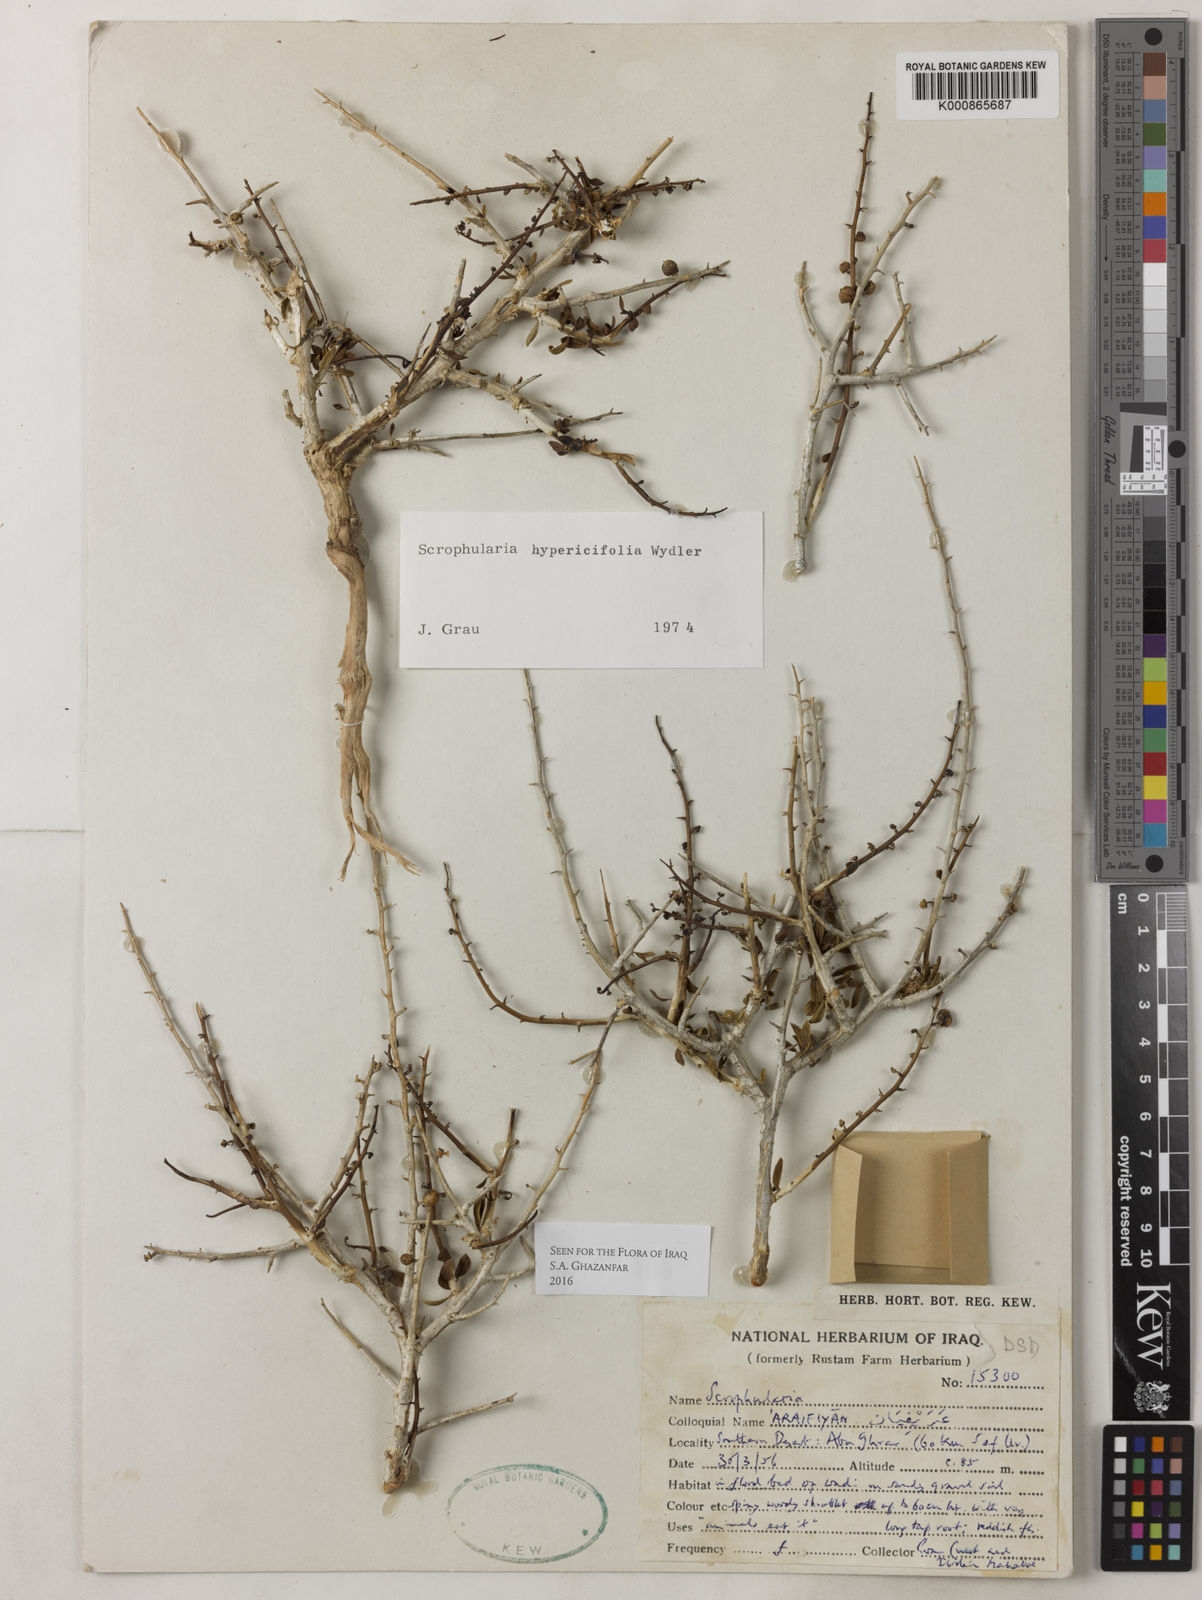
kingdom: Plantae
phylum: Tracheophyta
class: Magnoliopsida
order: Lamiales
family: Scrophulariaceae
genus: Scrophularia
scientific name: Scrophularia hypericifolia
